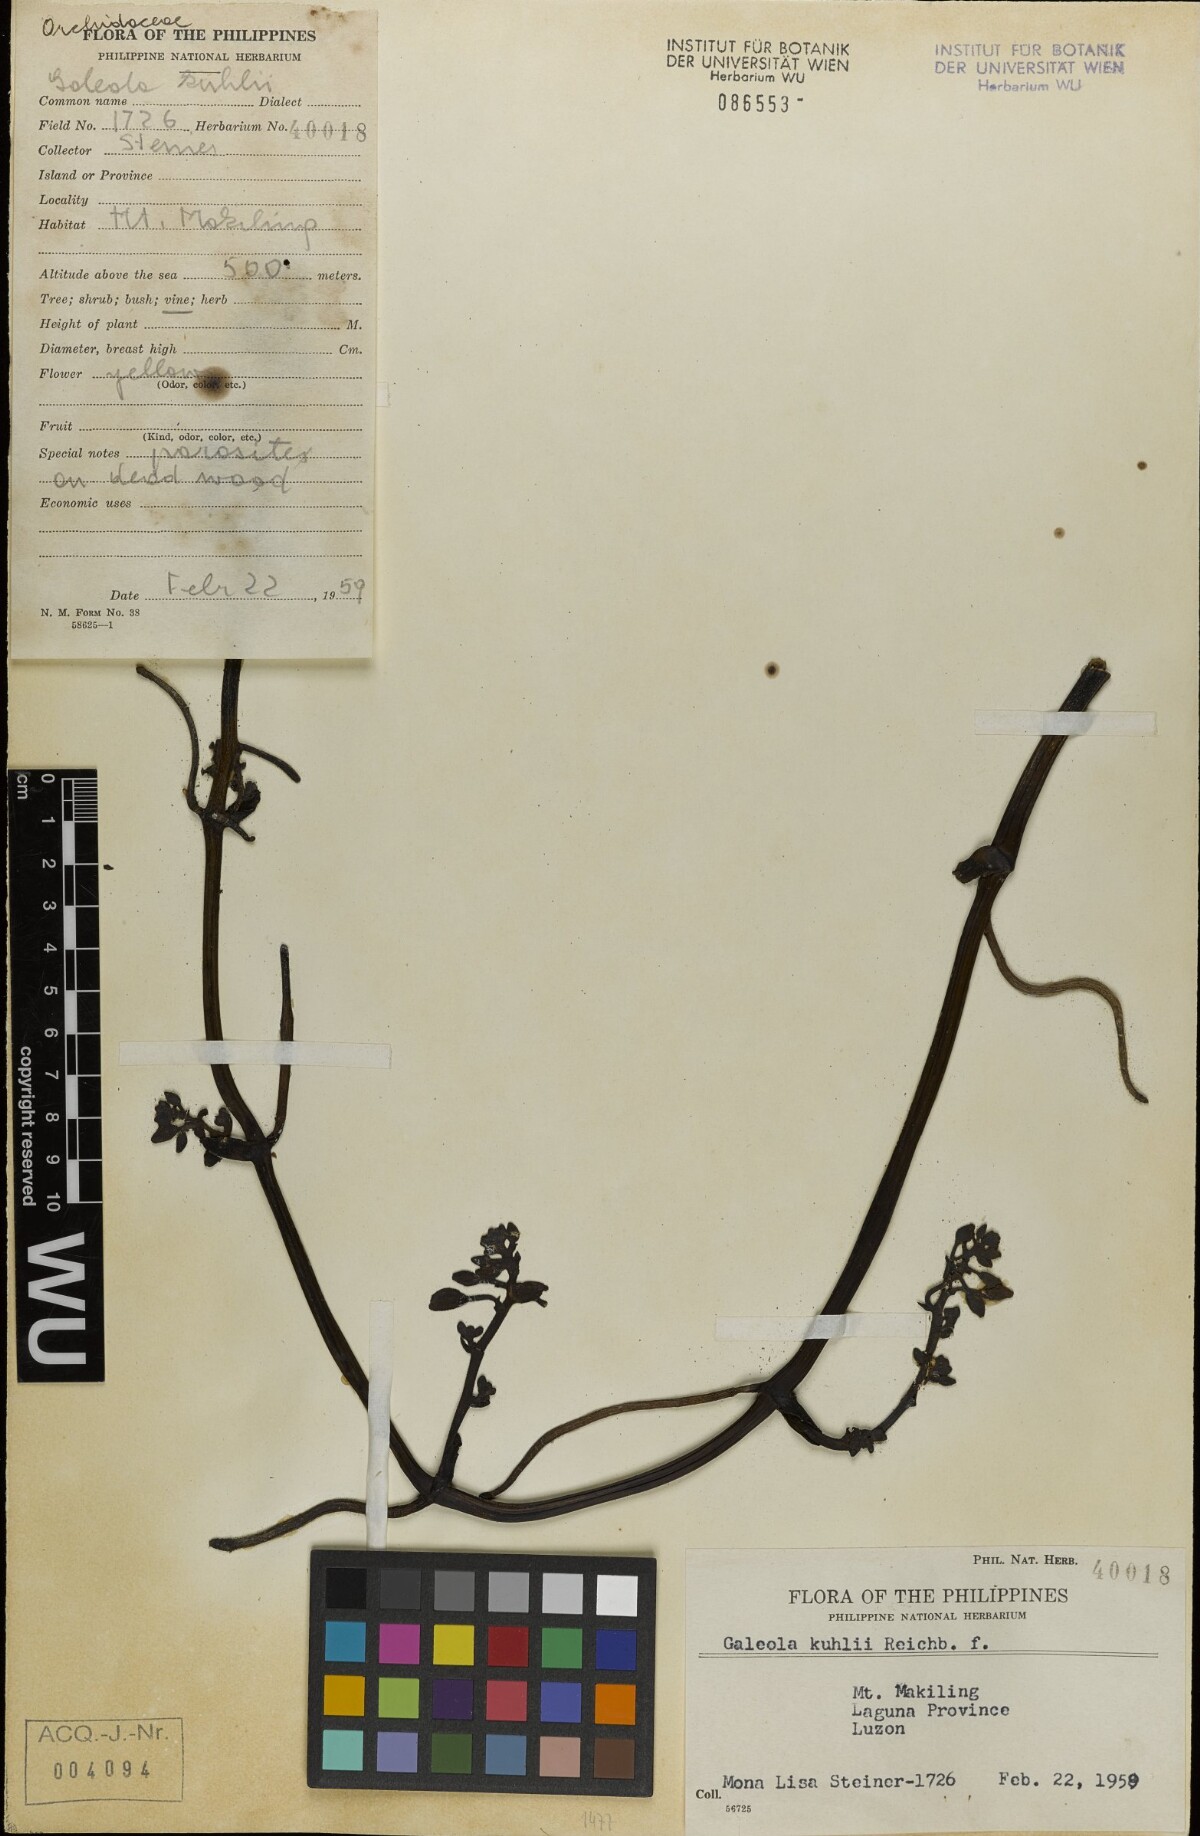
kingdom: Plantae
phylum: Tracheophyta
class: Liliopsida
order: Asparagales
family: Orchidaceae
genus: Galeola
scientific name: Galeola nudifolia
